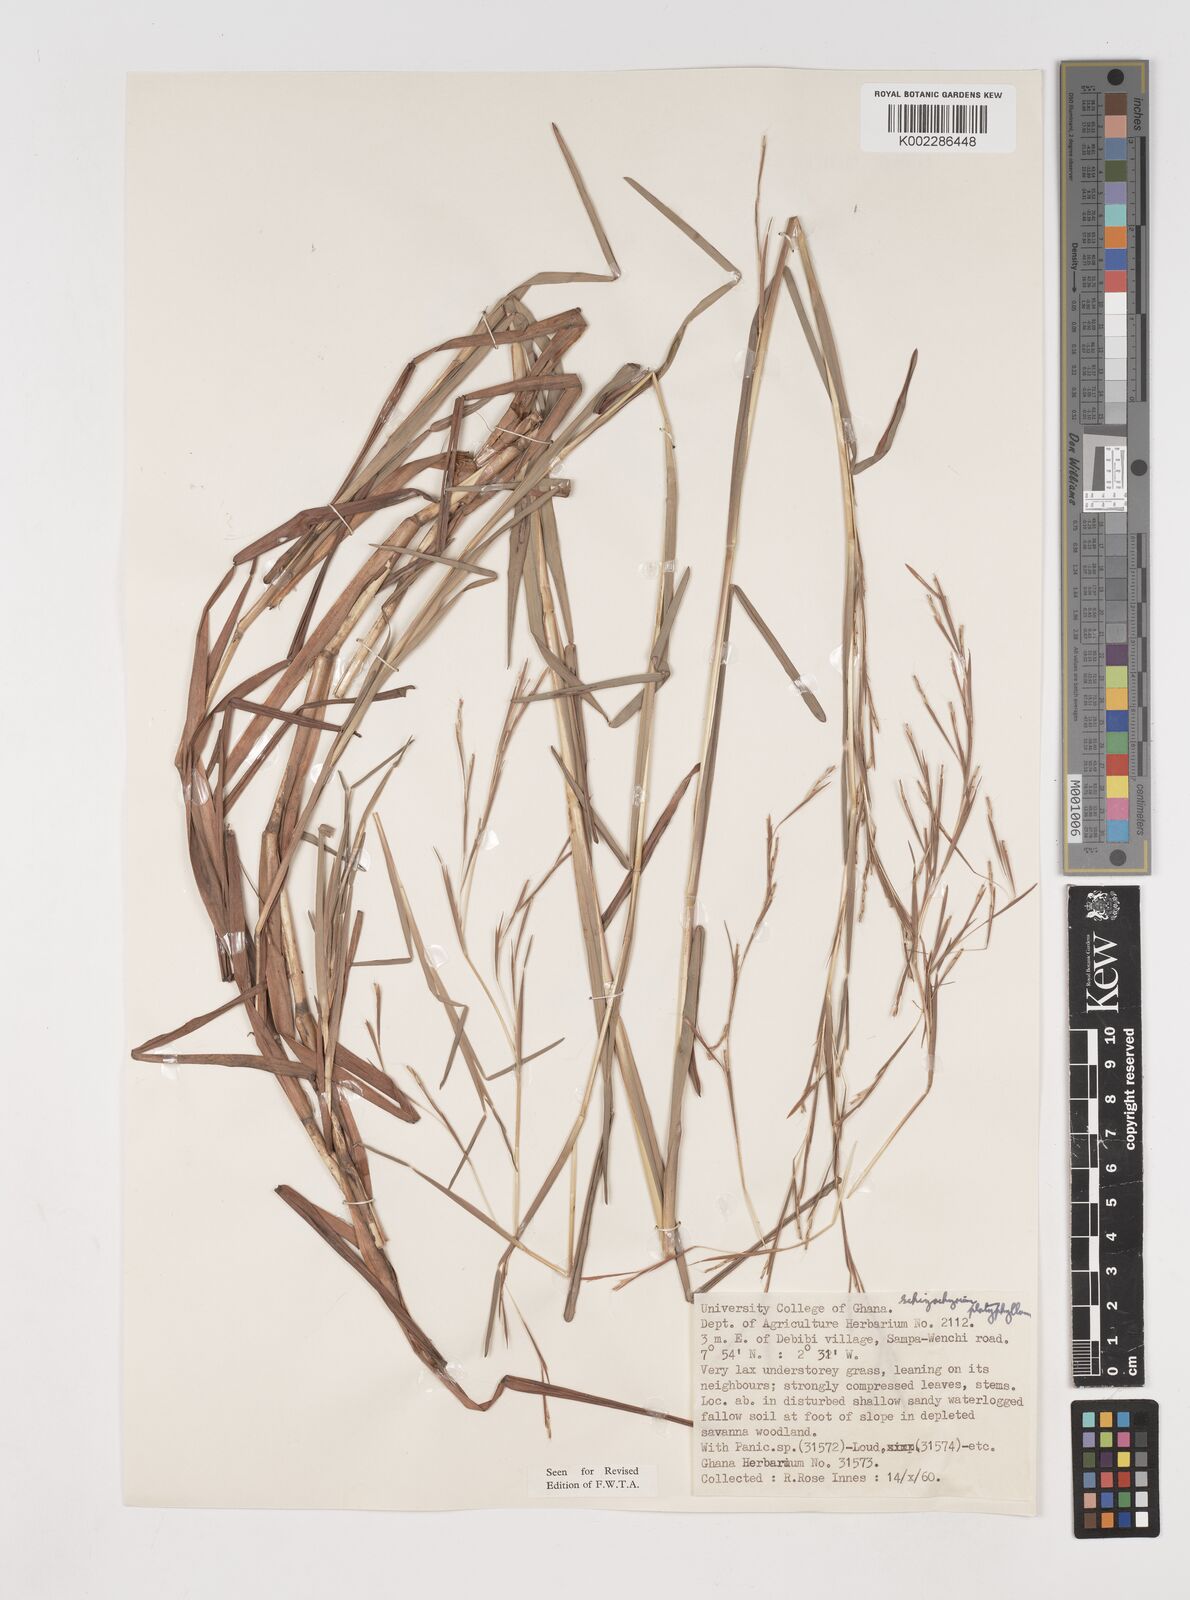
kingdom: Plantae
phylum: Tracheophyta
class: Liliopsida
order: Poales
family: Poaceae
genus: Schizachyrium
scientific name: Schizachyrium platyphyllum
